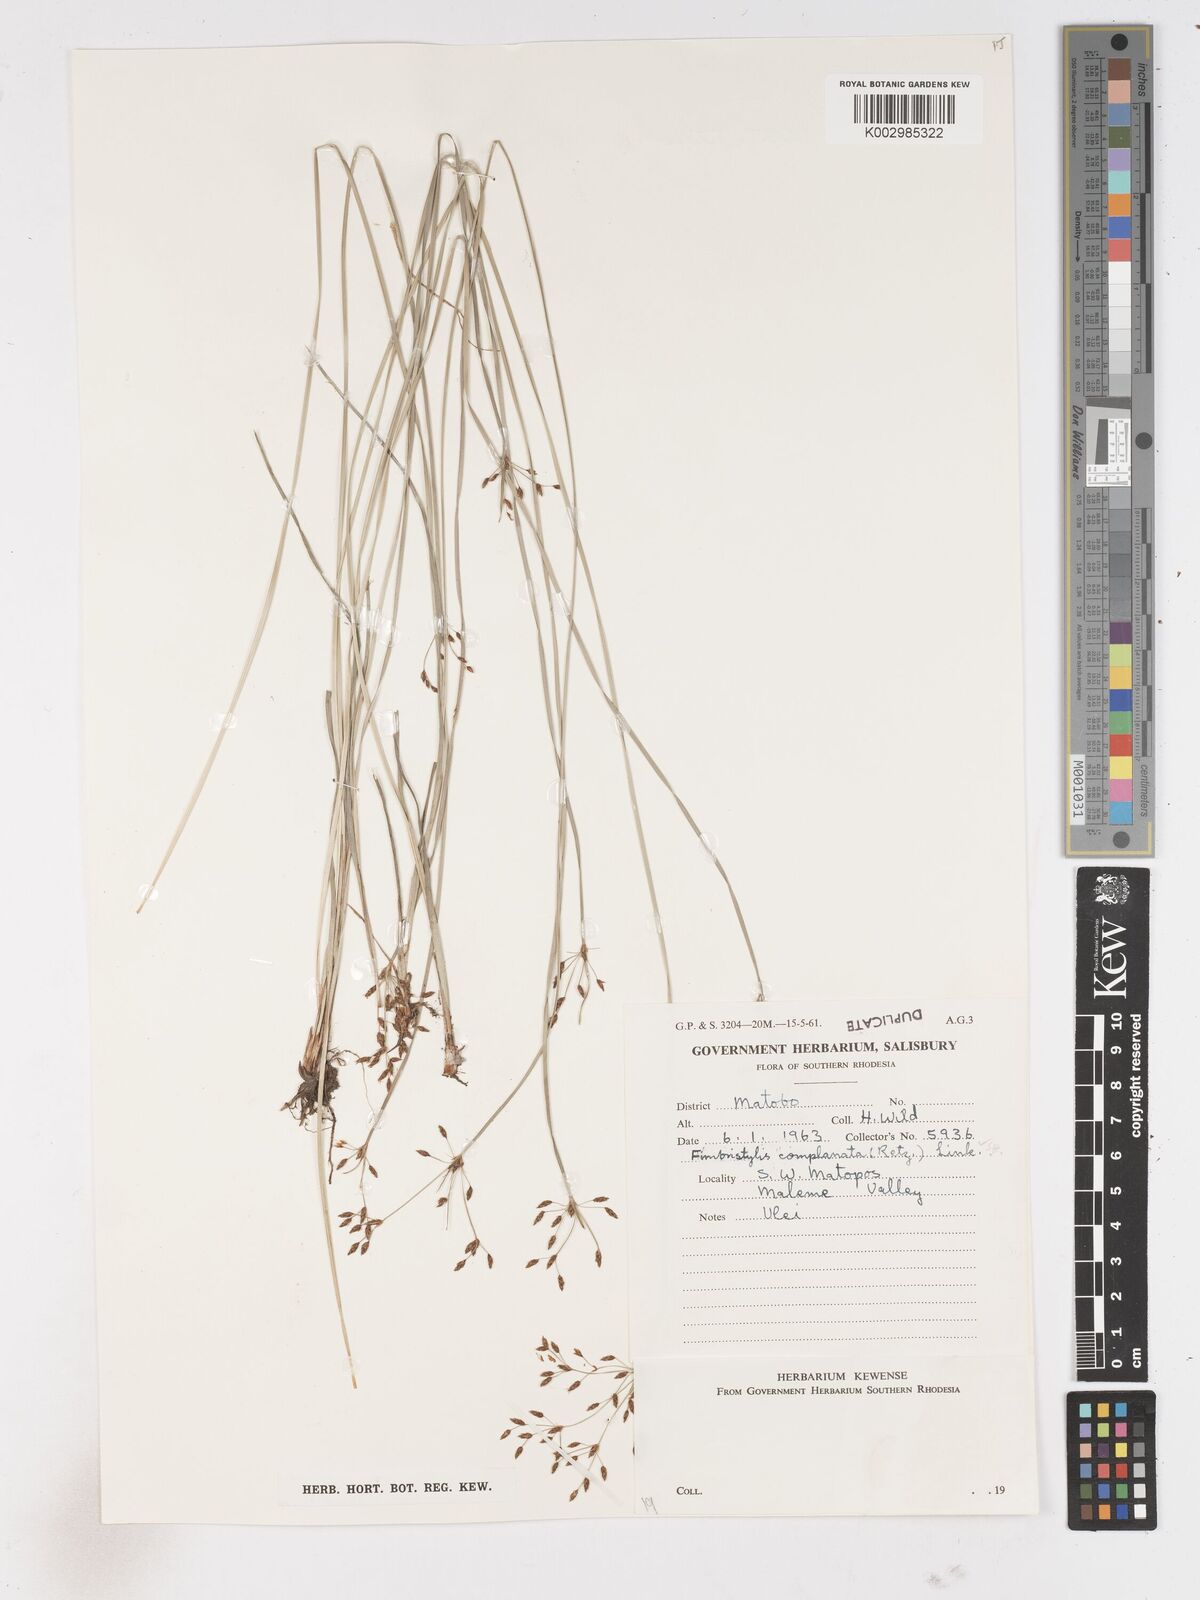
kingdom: Plantae
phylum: Tracheophyta
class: Liliopsida
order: Poales
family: Cyperaceae
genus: Fimbristylis
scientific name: Fimbristylis complanata
